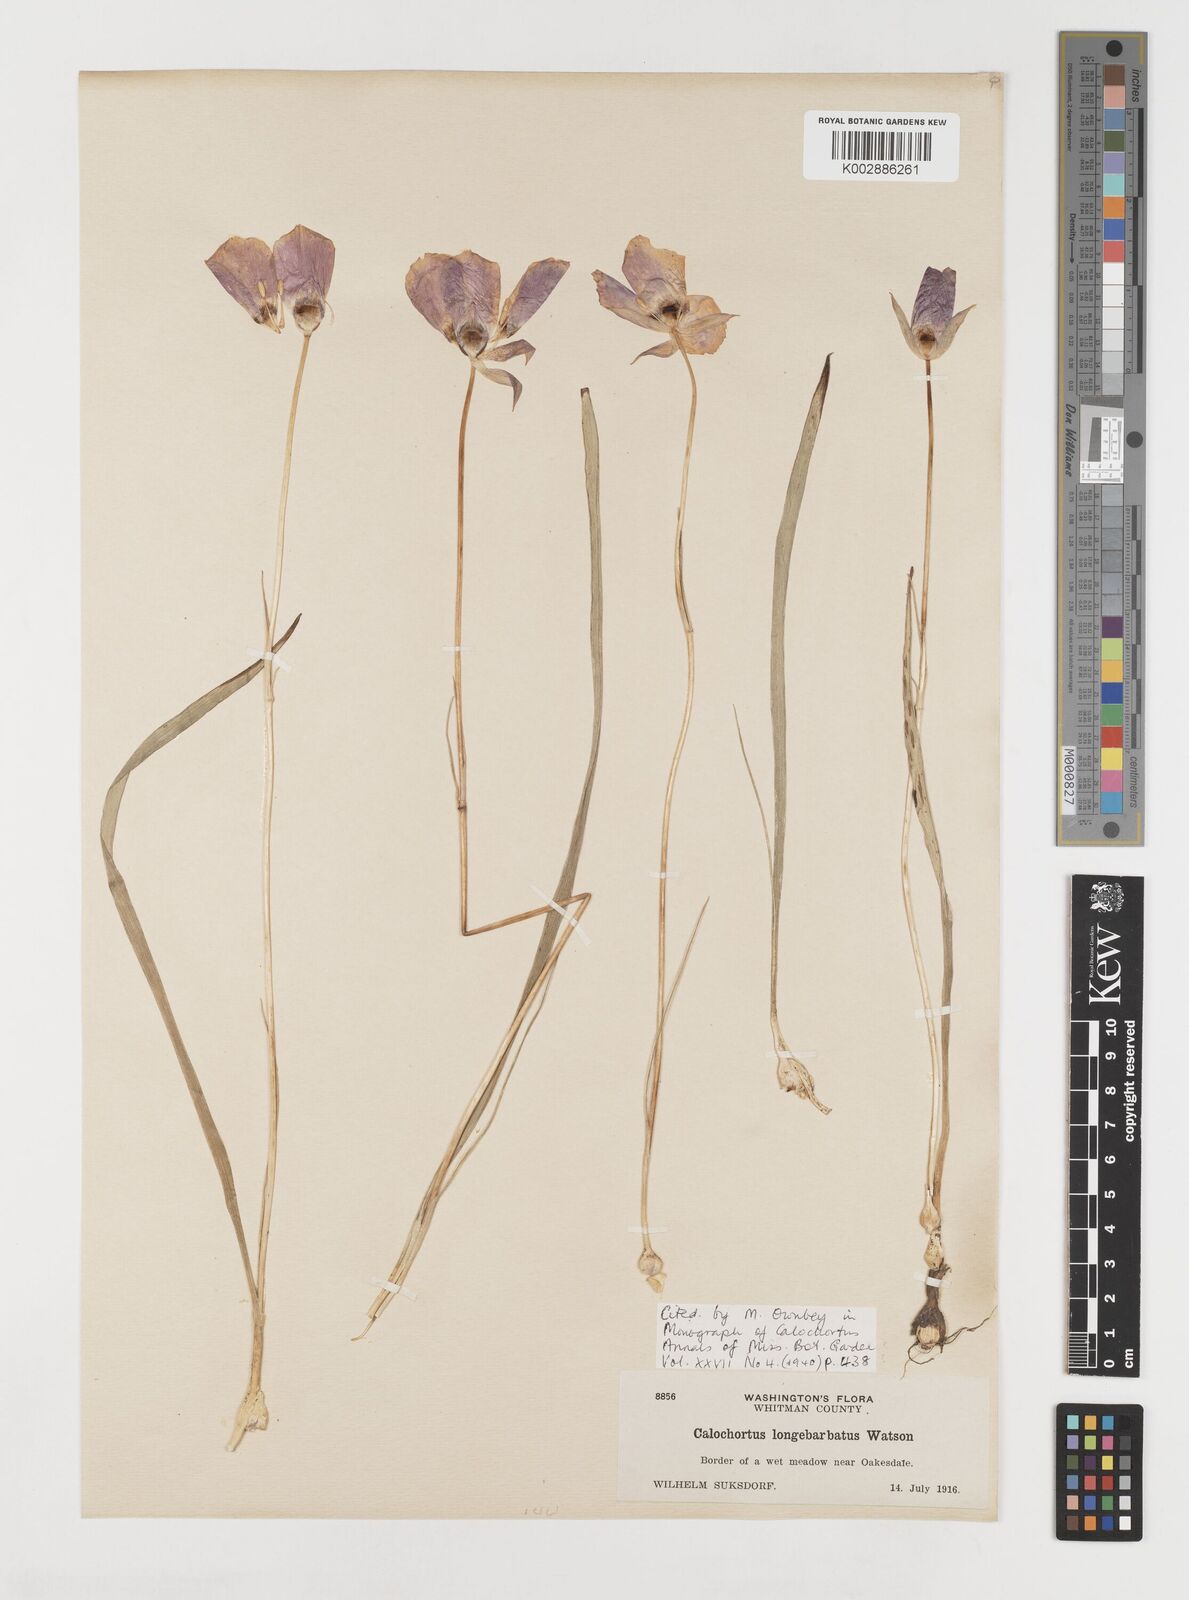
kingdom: Plantae
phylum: Tracheophyta
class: Liliopsida
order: Liliales
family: Liliaceae
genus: Calochortus
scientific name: Calochortus longibarbatus
